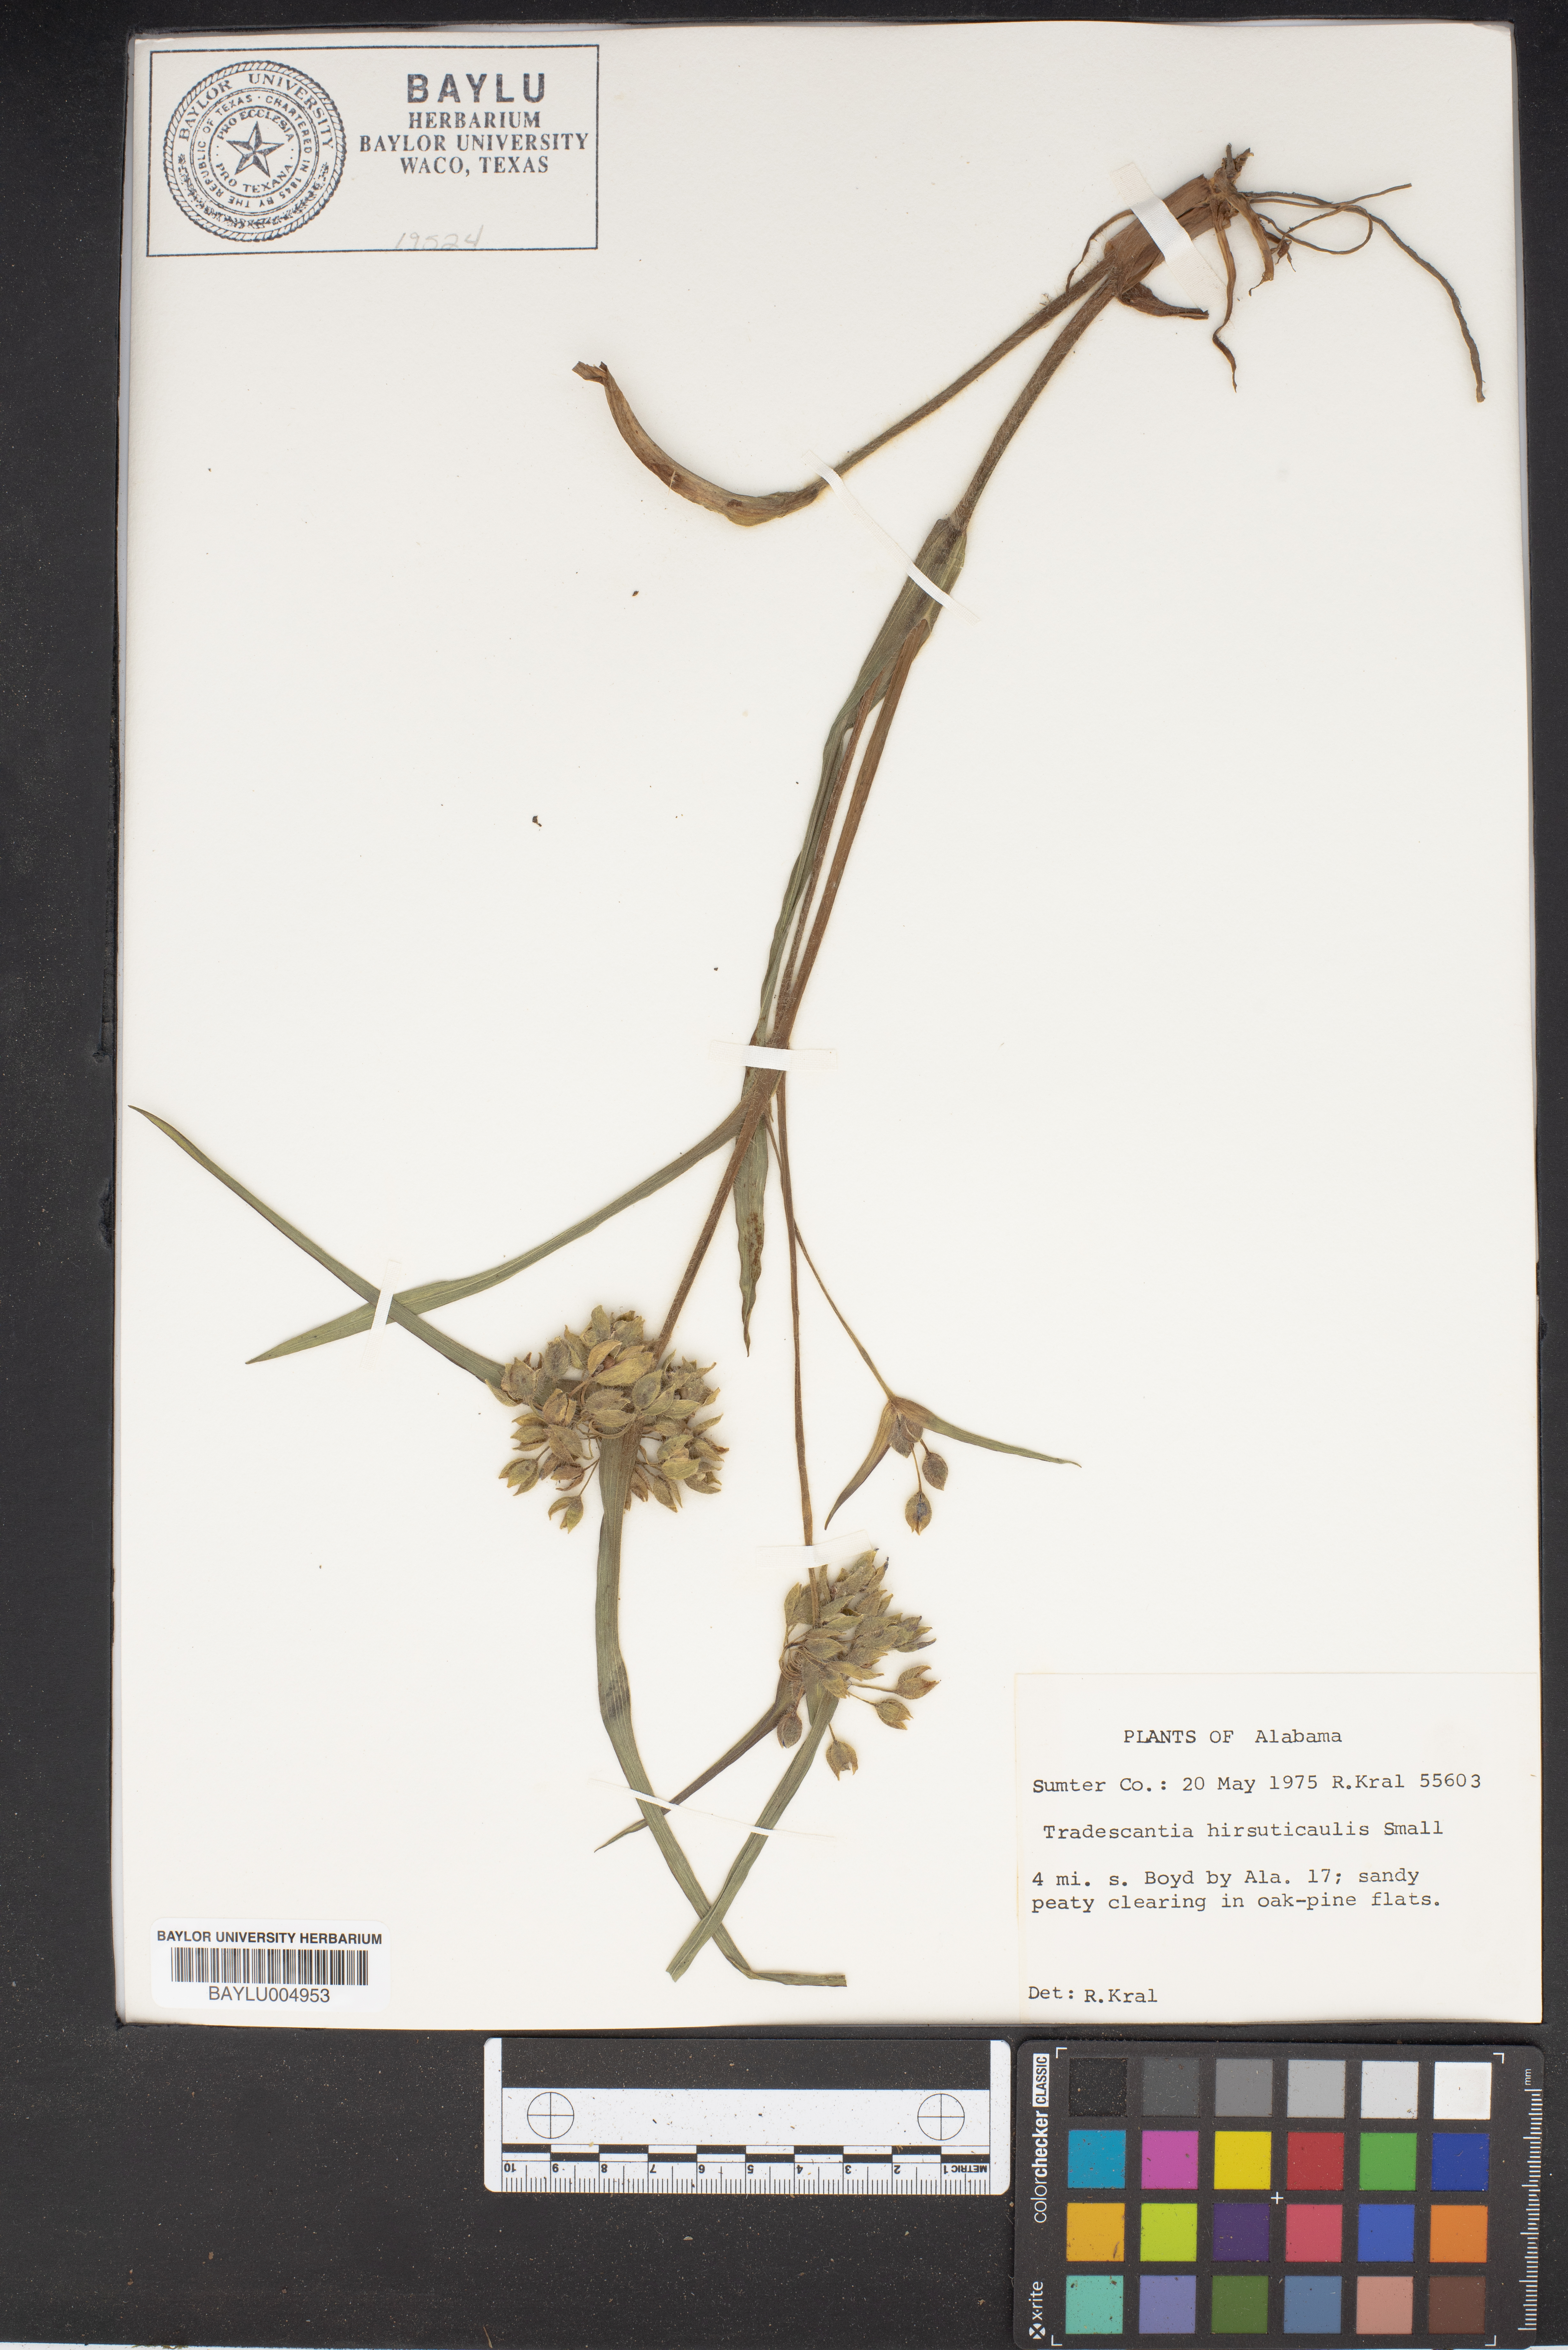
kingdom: Plantae
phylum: Tracheophyta
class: Liliopsida
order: Commelinales
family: Commelinaceae
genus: Tradescantia
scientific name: Tradescantia hirsuticaulis
